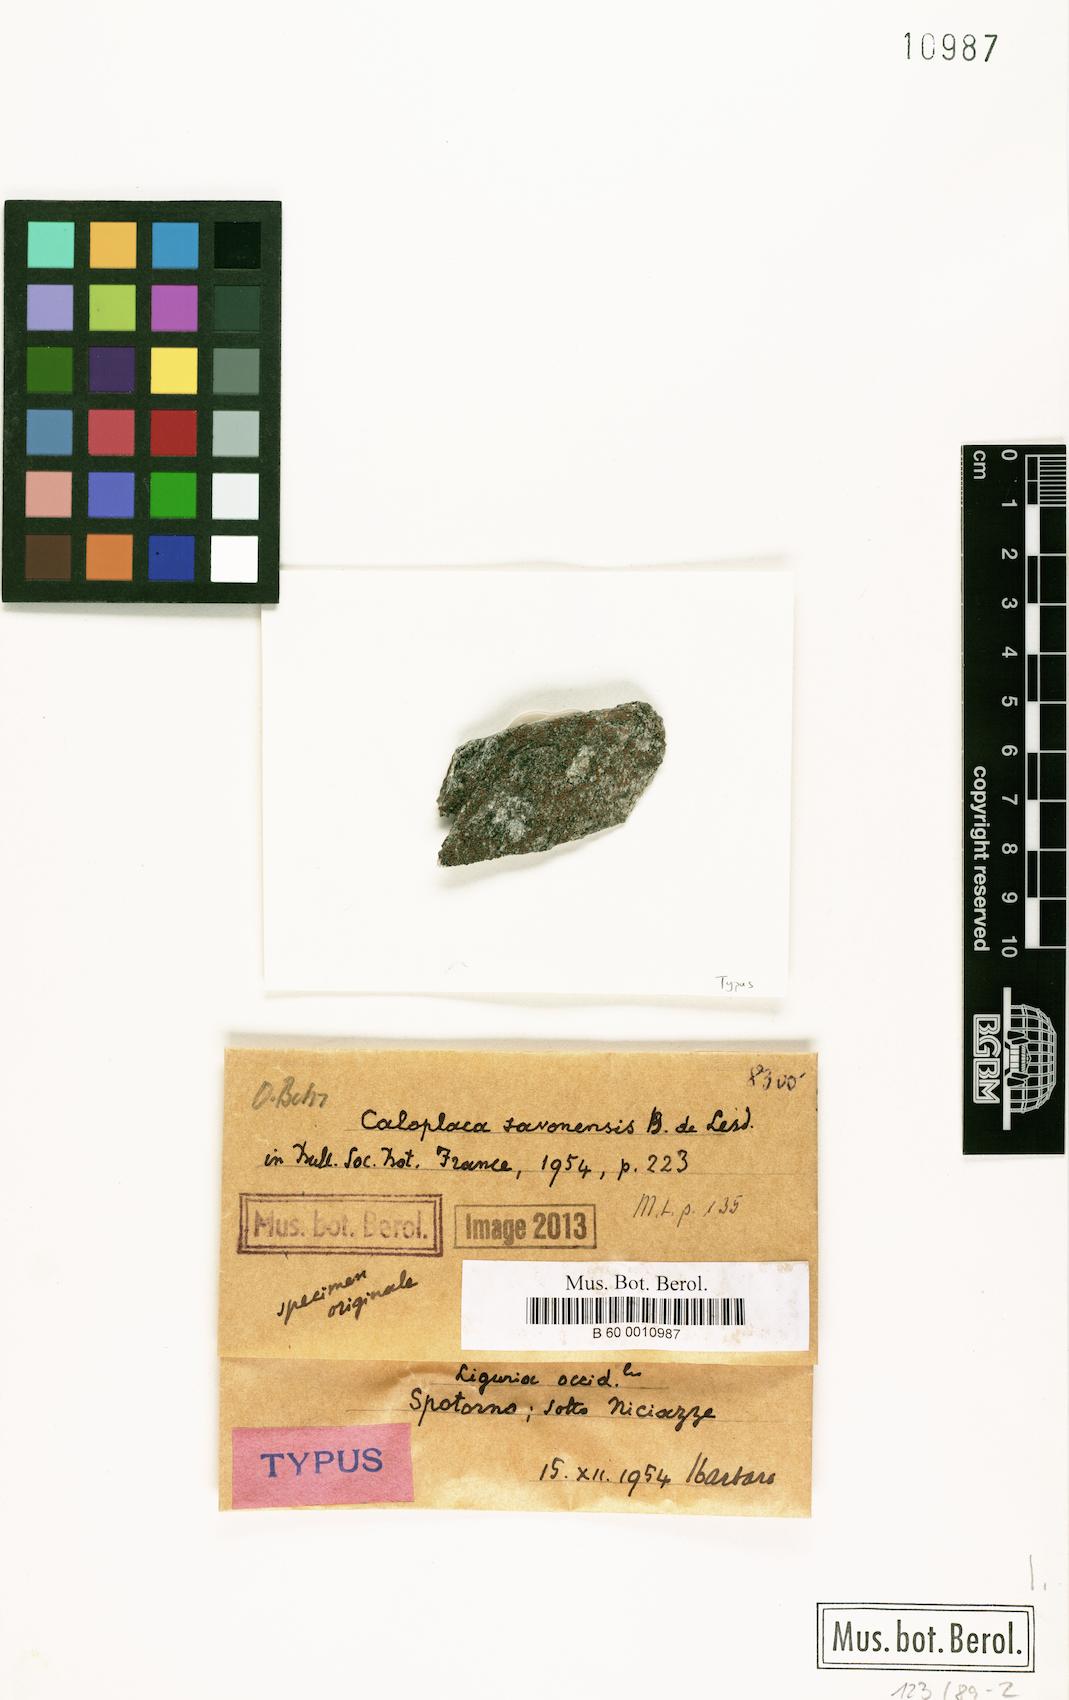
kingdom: Fungi
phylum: Ascomycota
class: Lecanoromycetes
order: Teloschistales
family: Teloschistaceae
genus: Caloplaca
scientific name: Caloplaca spotornonis
